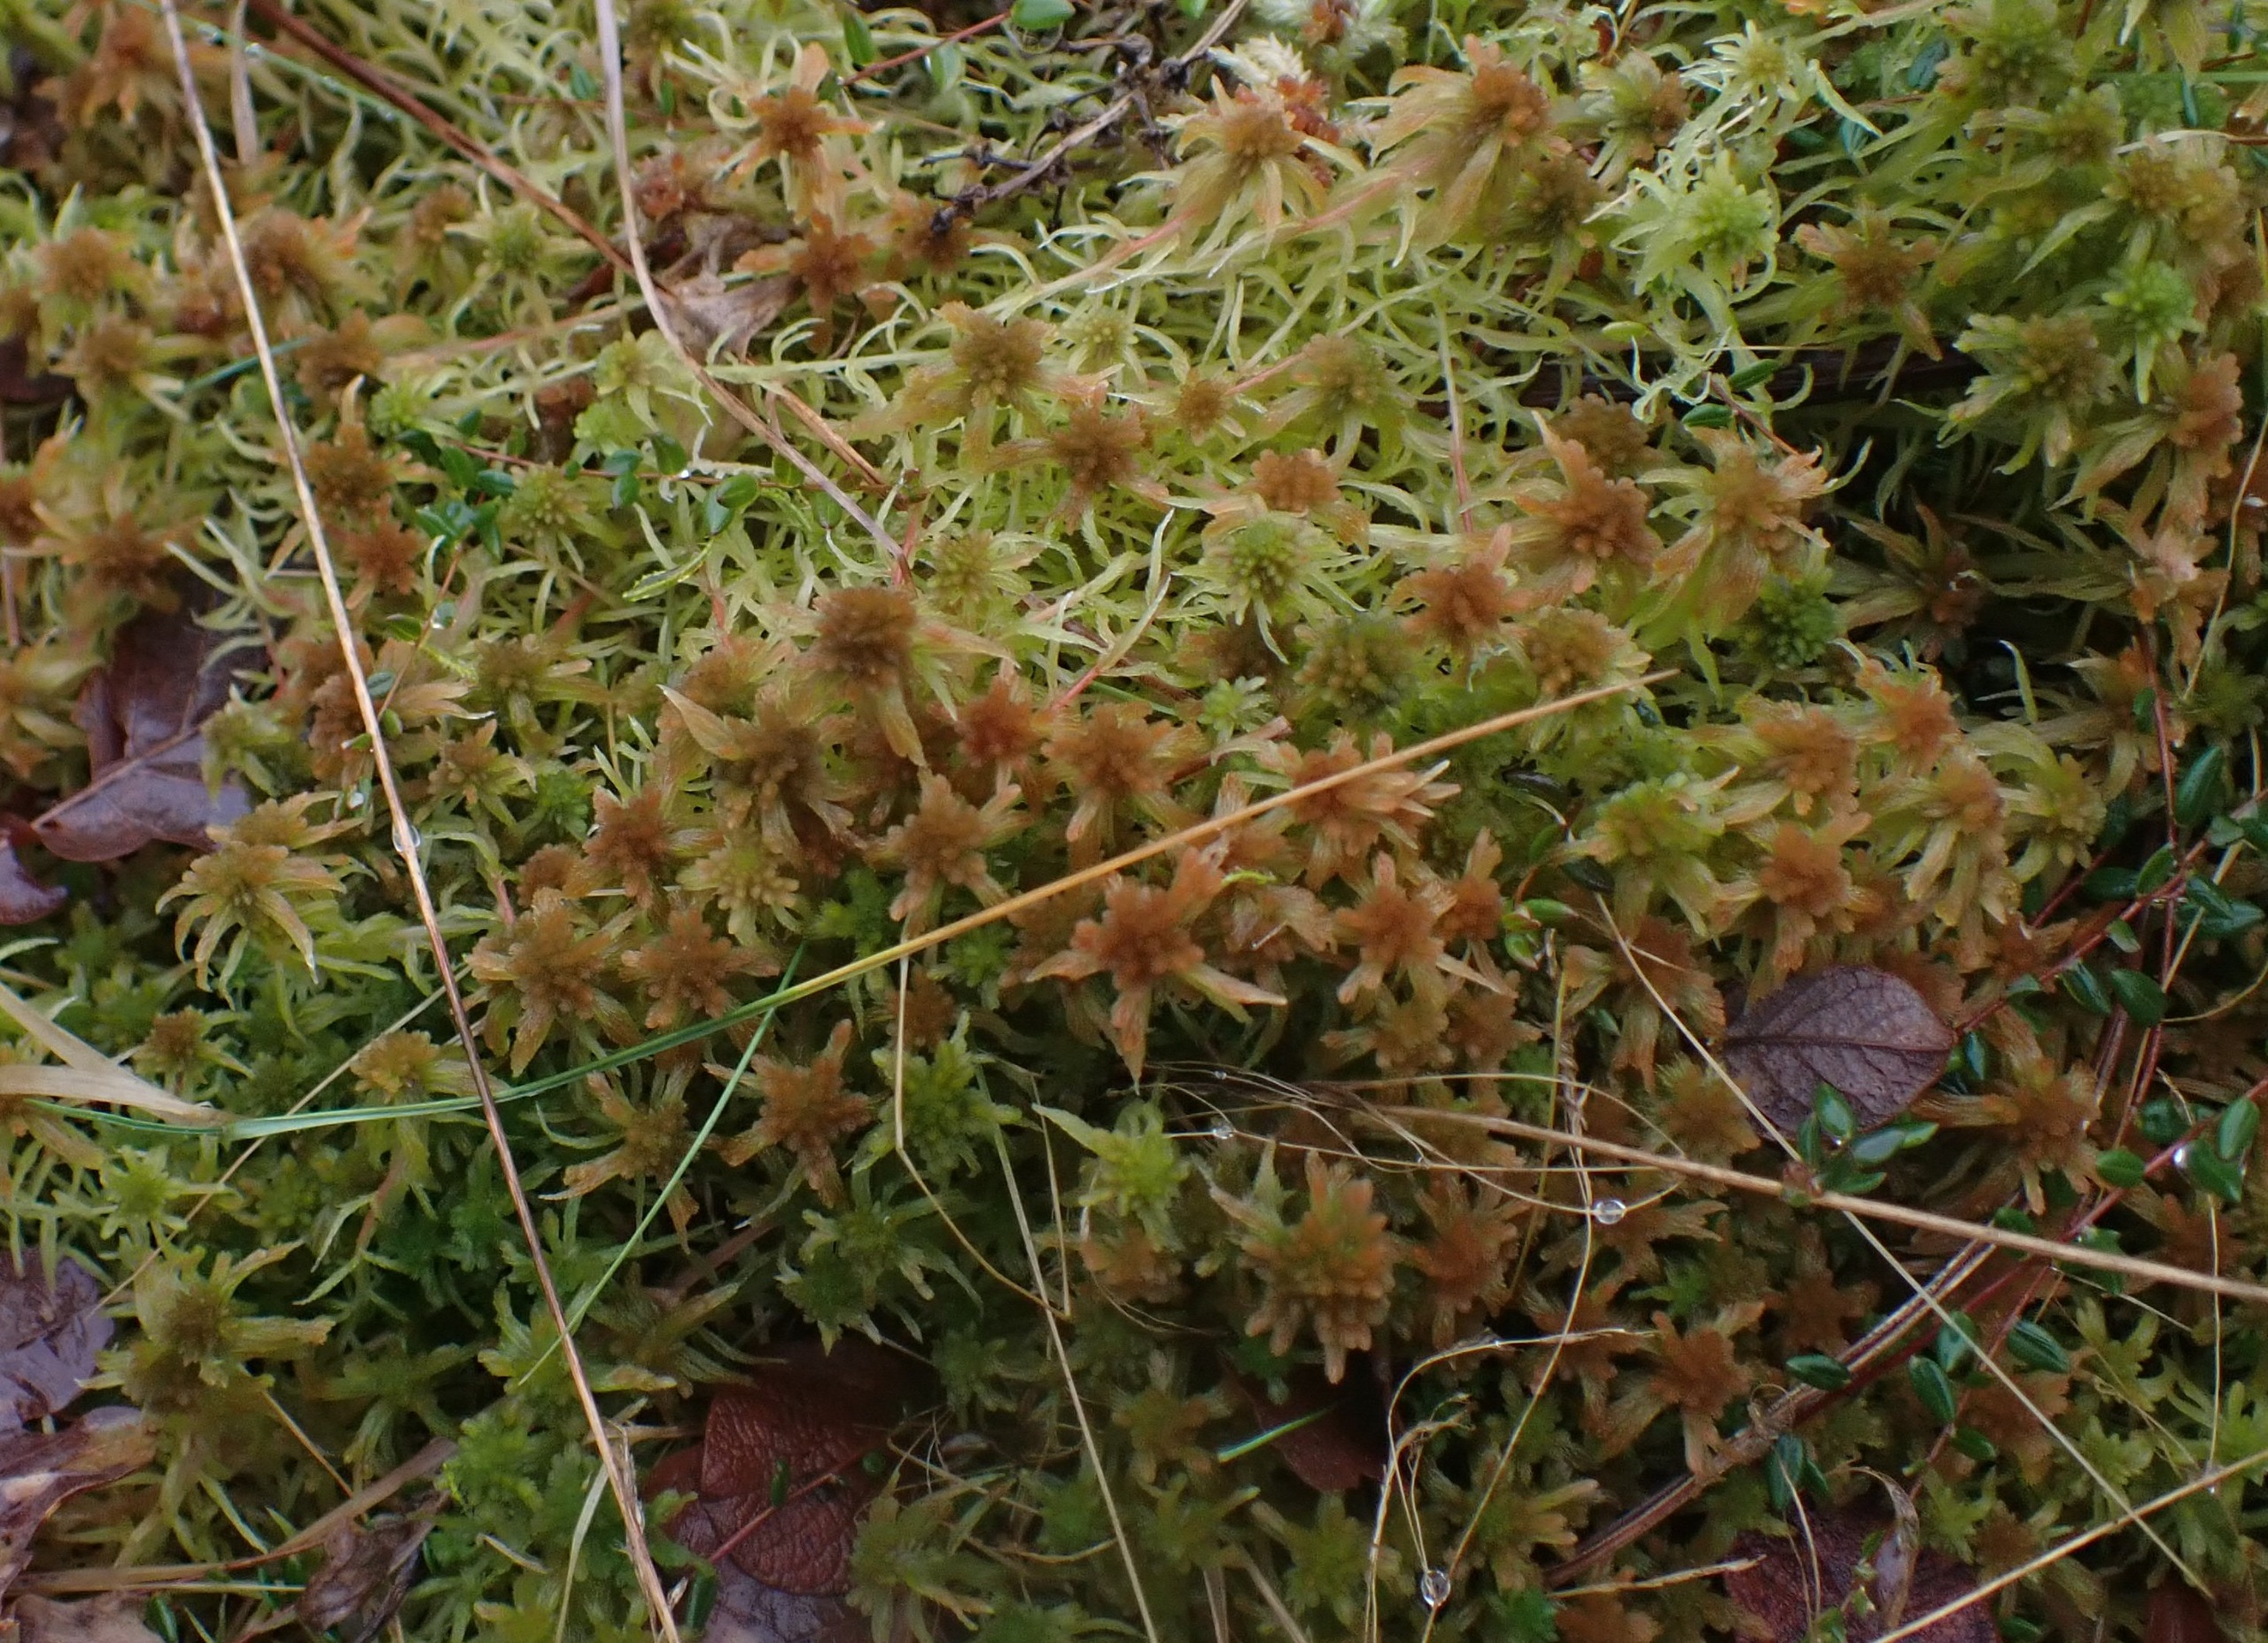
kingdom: Plantae
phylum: Bryophyta
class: Sphagnopsida
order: Sphagnales
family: Sphagnaceae
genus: Sphagnum
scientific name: Sphagnum angustifolium
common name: Rødgrenet tørvemos
